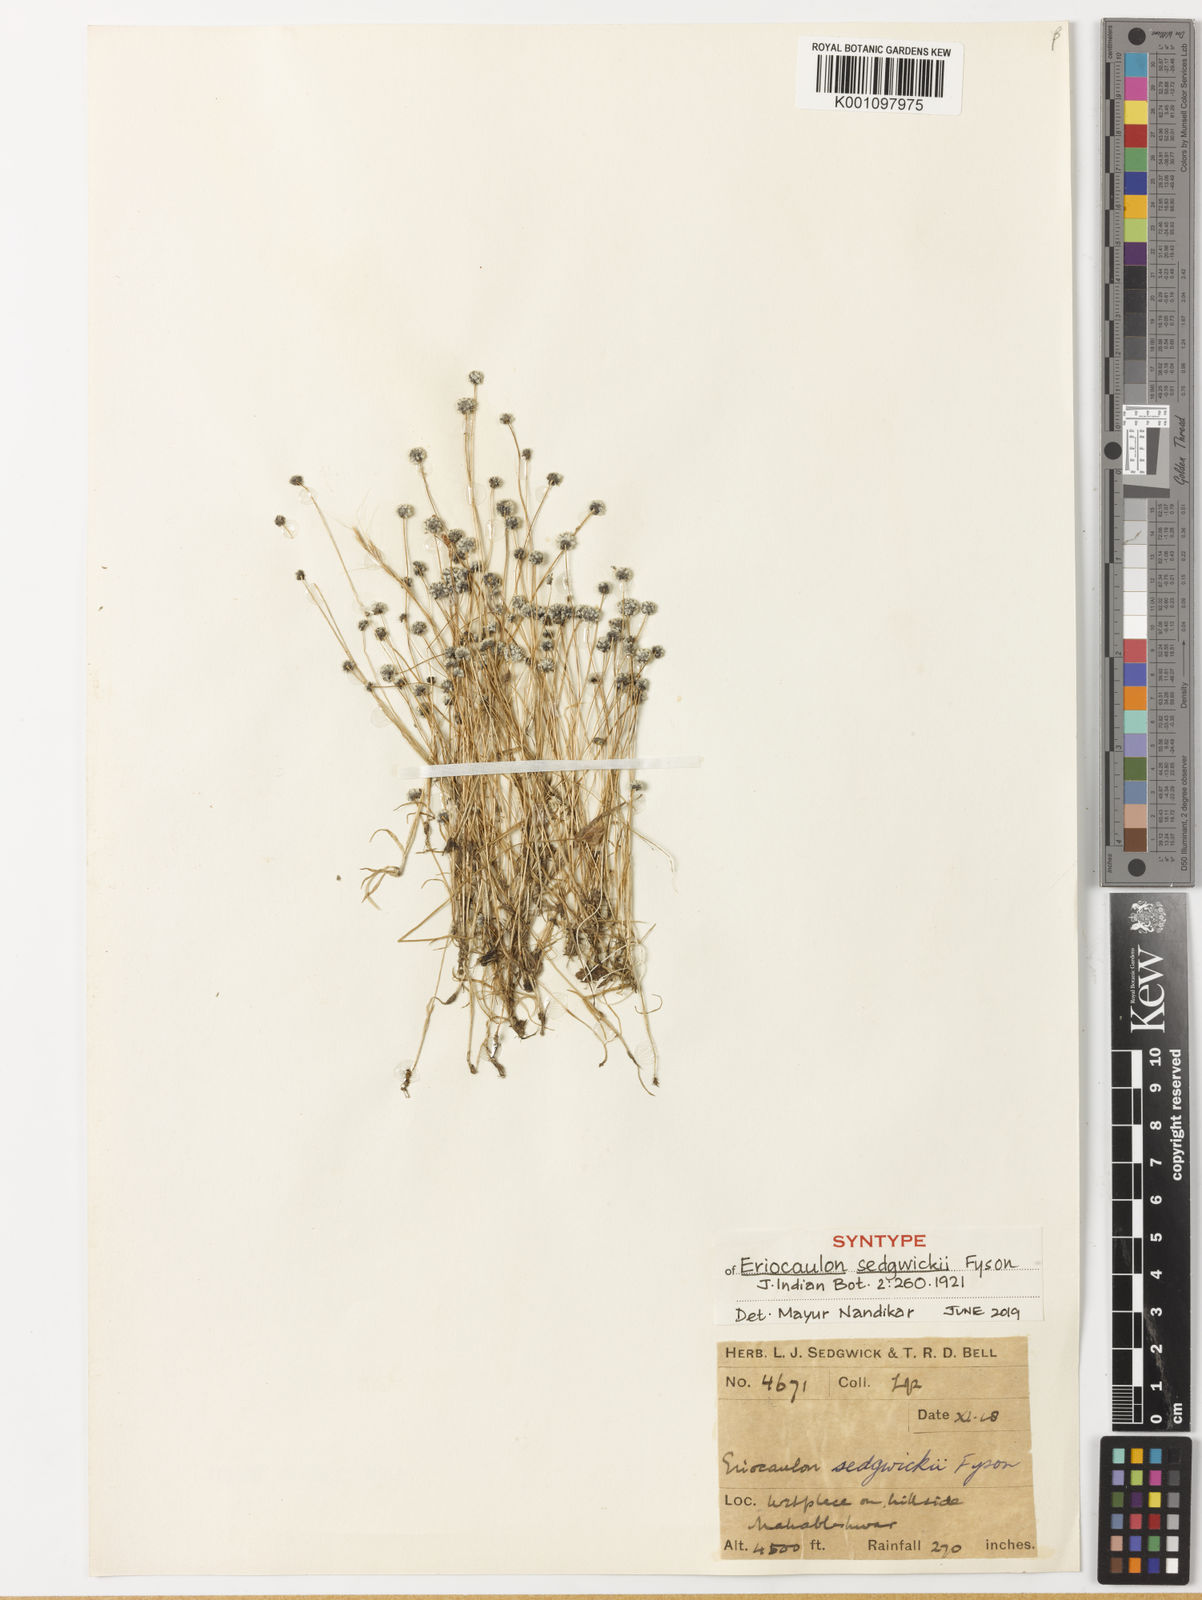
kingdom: Plantae
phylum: Tracheophyta
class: Liliopsida
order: Poales
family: Eriocaulaceae
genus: Eriocaulon
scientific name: Eriocaulon sedgwickii
